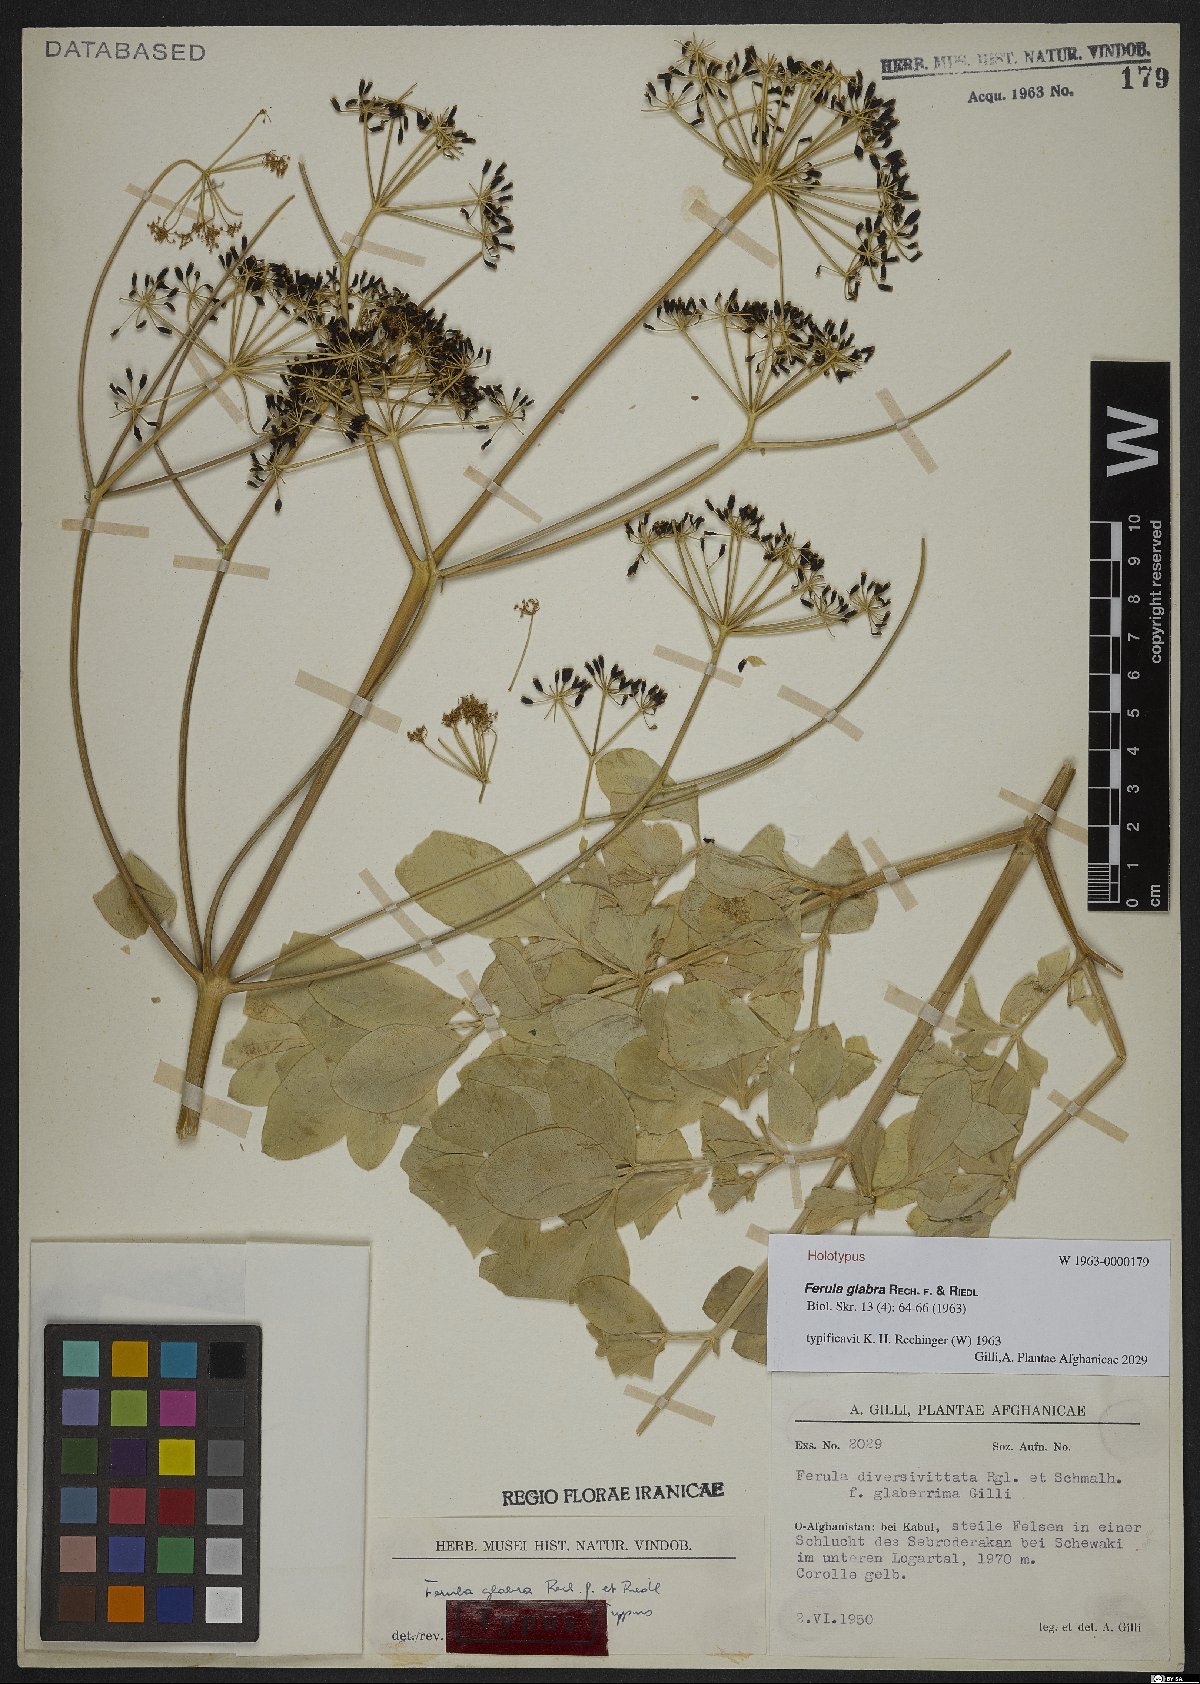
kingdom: Plantae
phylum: Tracheophyta
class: Magnoliopsida
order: Apiales
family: Apiaceae
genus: Ferula
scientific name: Ferula glabra
